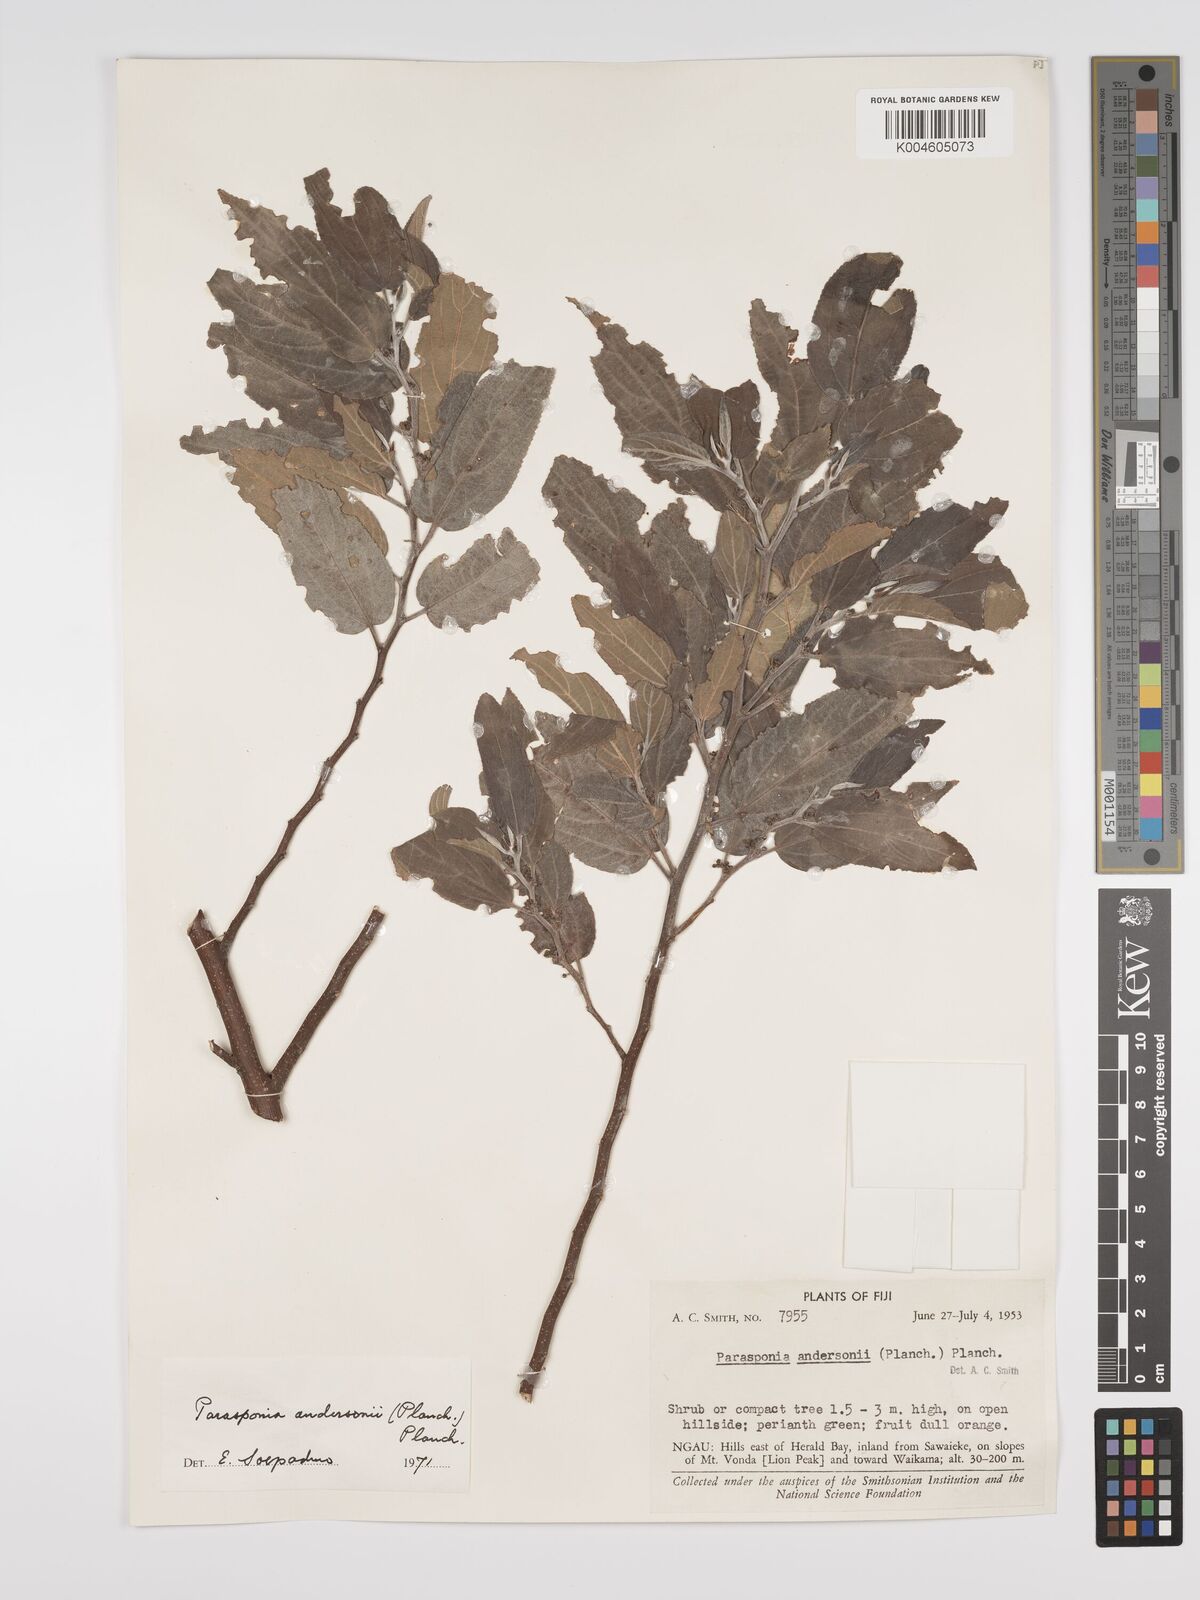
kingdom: Plantae
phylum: Tracheophyta
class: Magnoliopsida
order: Rosales
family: Cannabaceae
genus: Trema
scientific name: Trema andersonii
